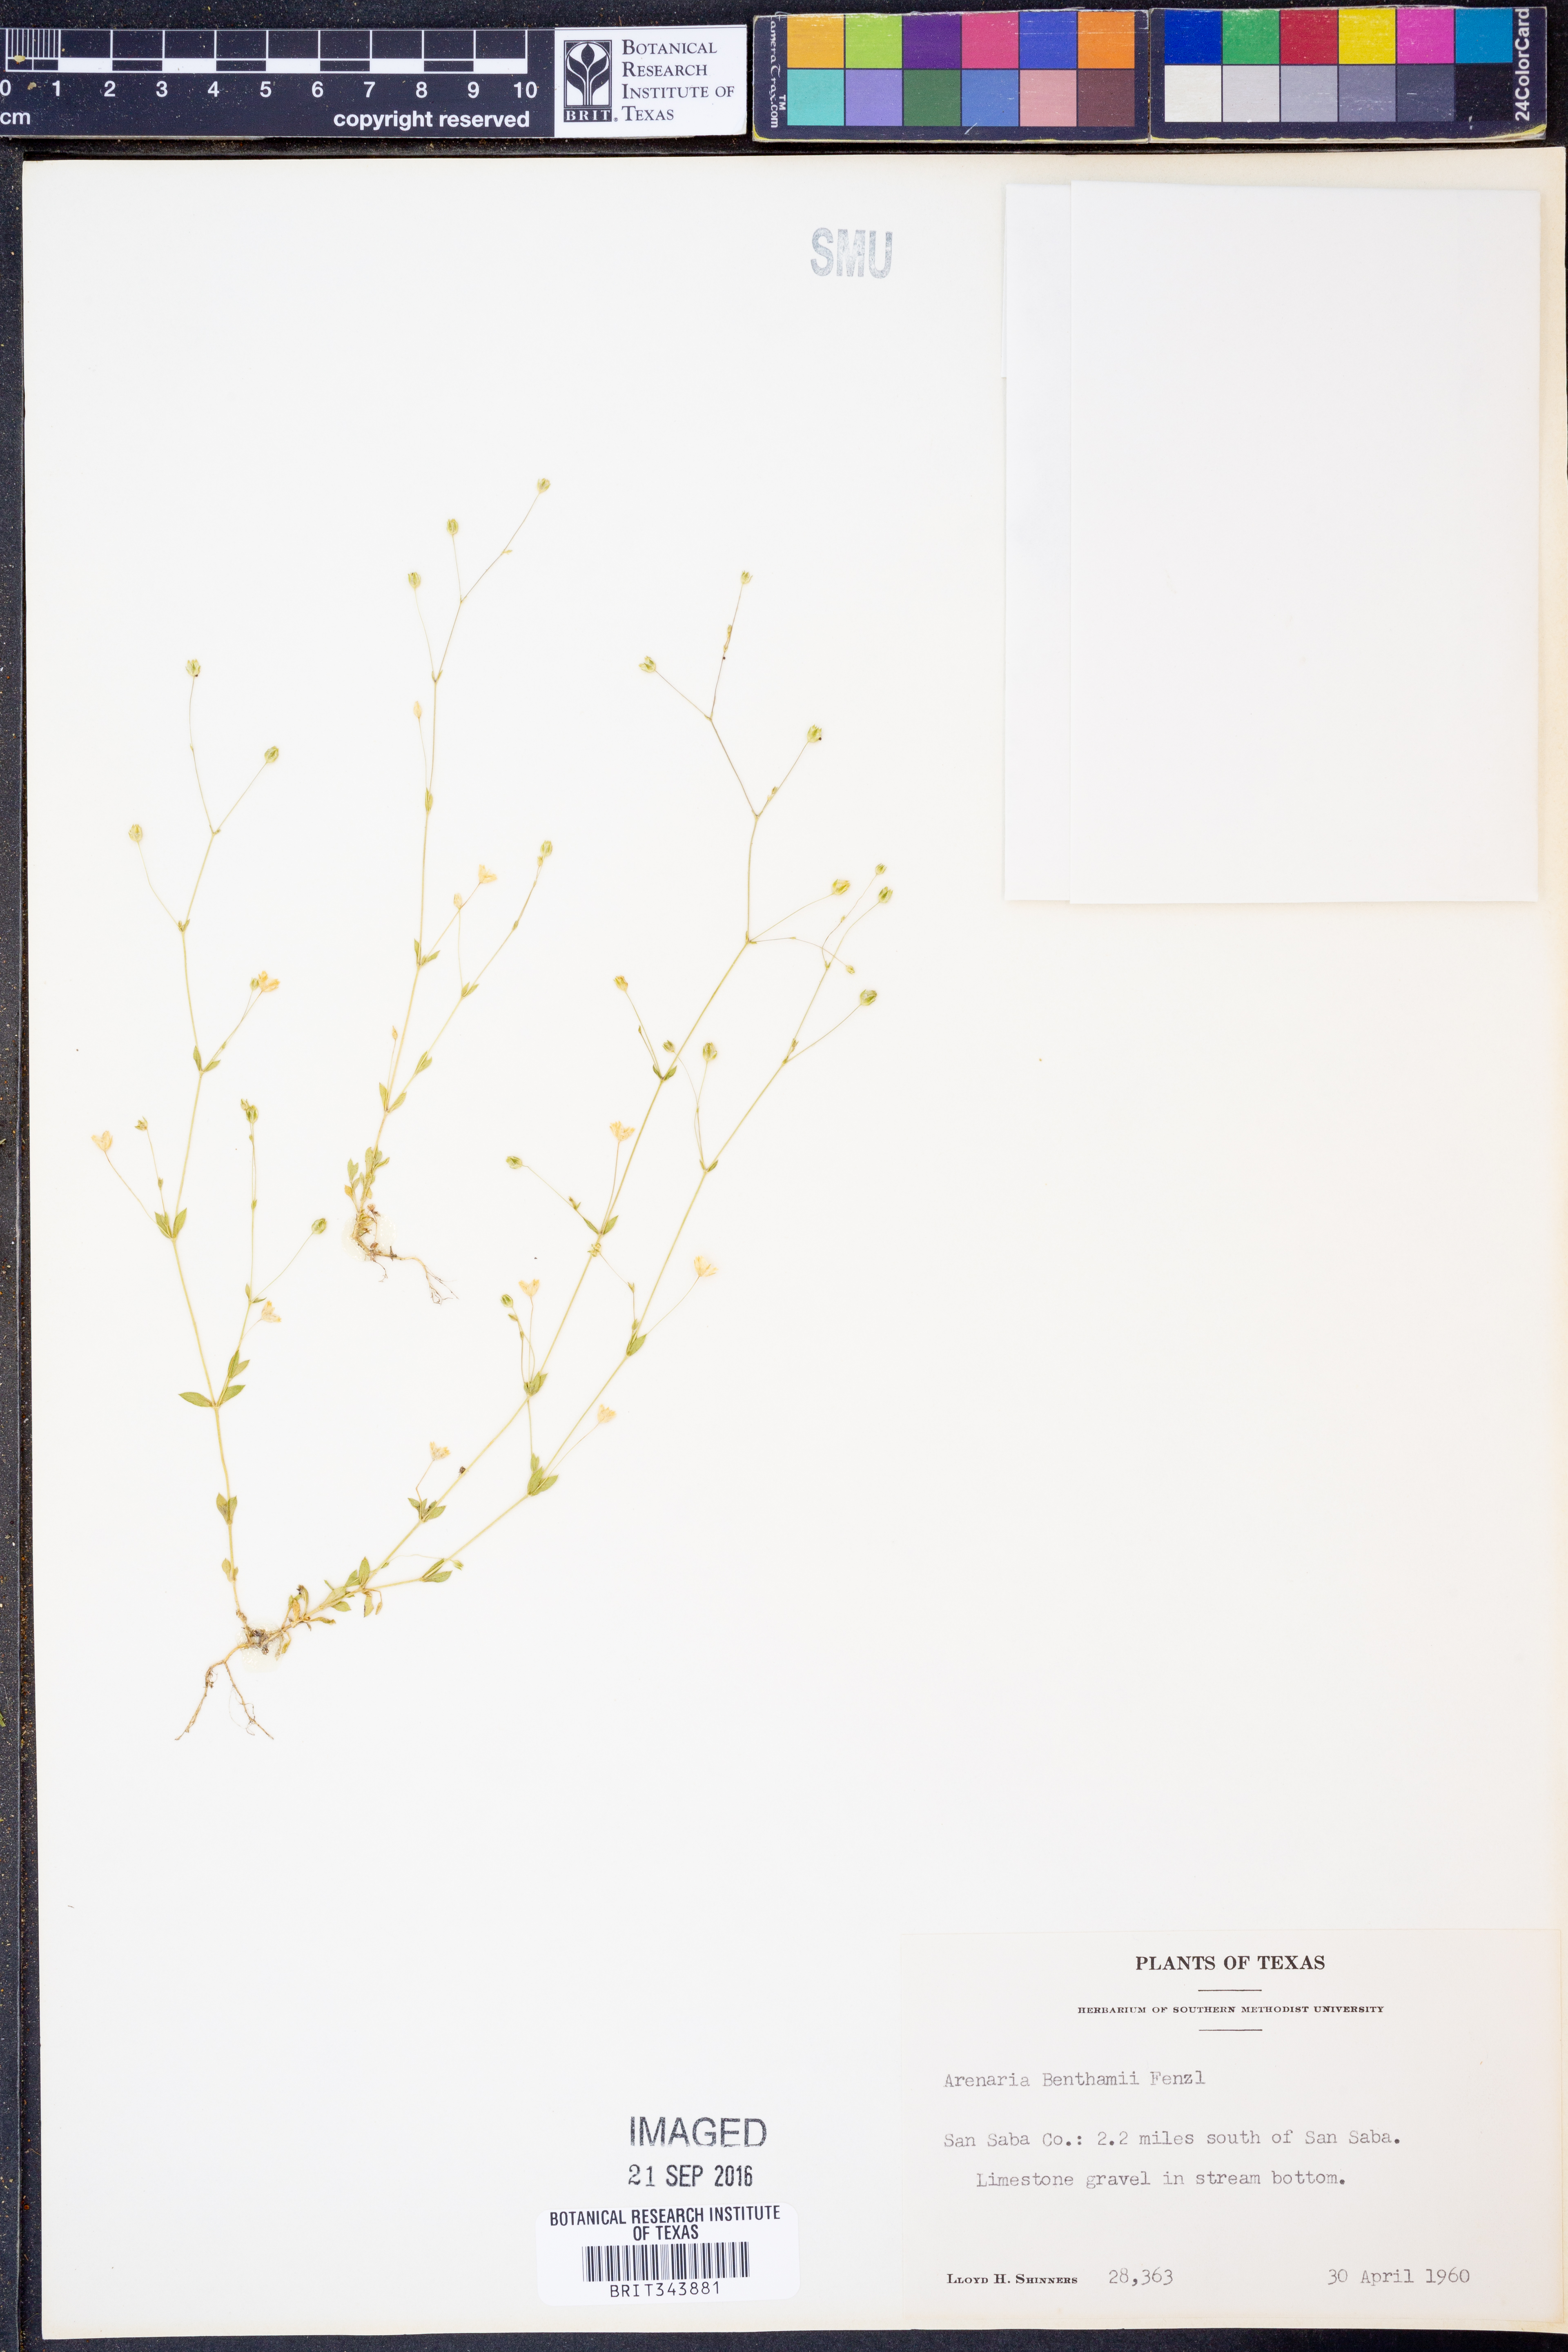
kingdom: Plantae
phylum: Tracheophyta
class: Magnoliopsida
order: Caryophyllales
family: Caryophyllaceae
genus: Arenaria
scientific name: Arenaria benthamii
